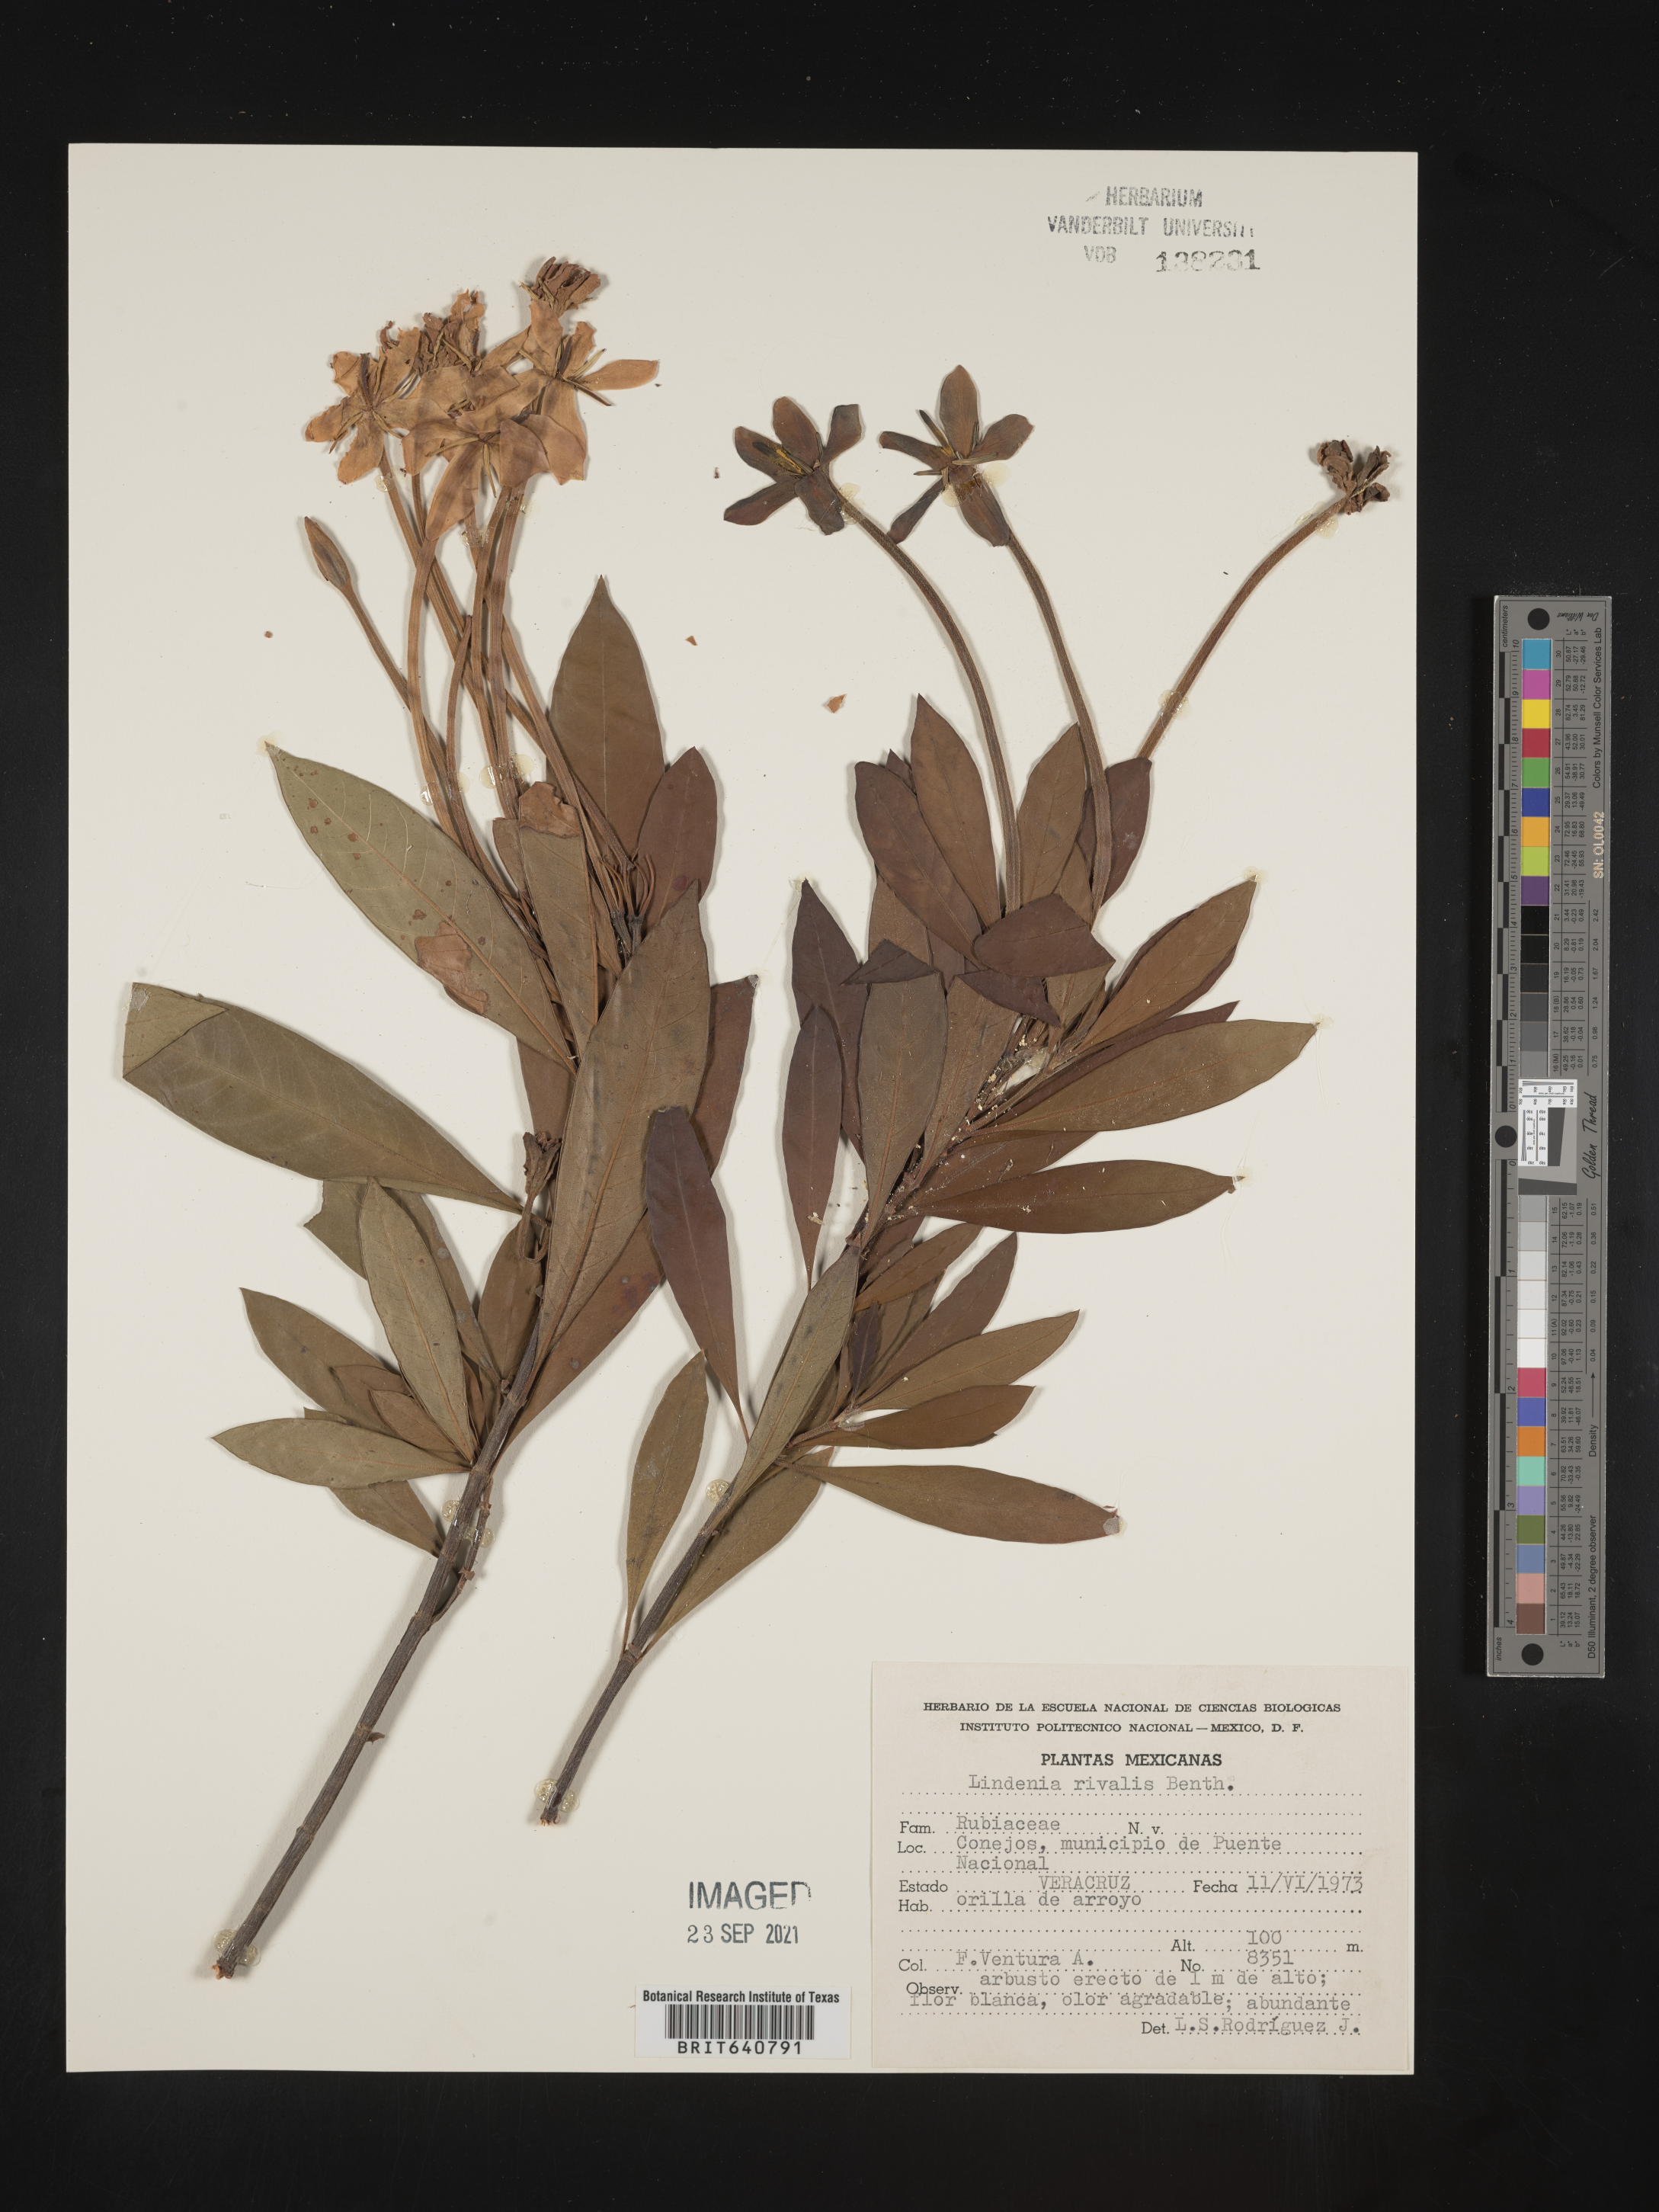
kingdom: Plantae
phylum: Tracheophyta
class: Magnoliopsida
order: Gentianales
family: Rubiaceae
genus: Augusta
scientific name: Augusta rivalis
